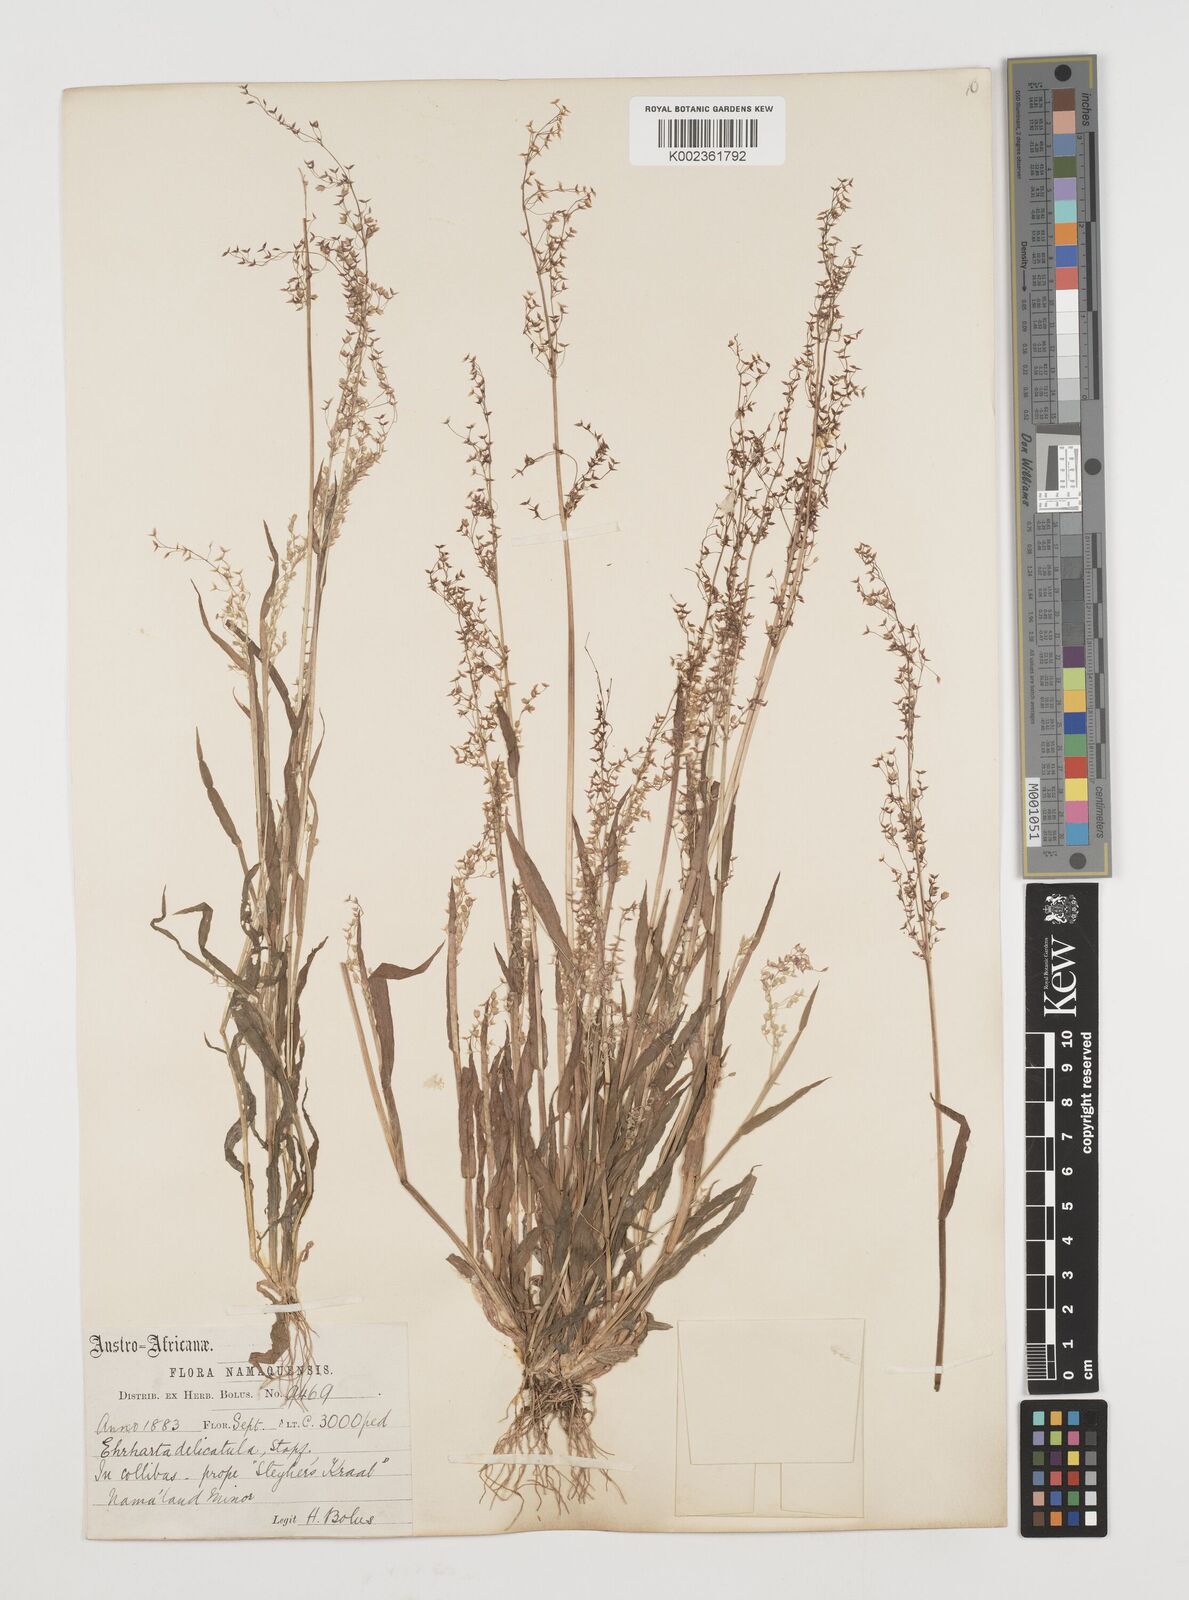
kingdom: Plantae
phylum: Tracheophyta
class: Liliopsida
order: Poales
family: Poaceae
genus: Ehrharta
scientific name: Ehrharta delicatula
